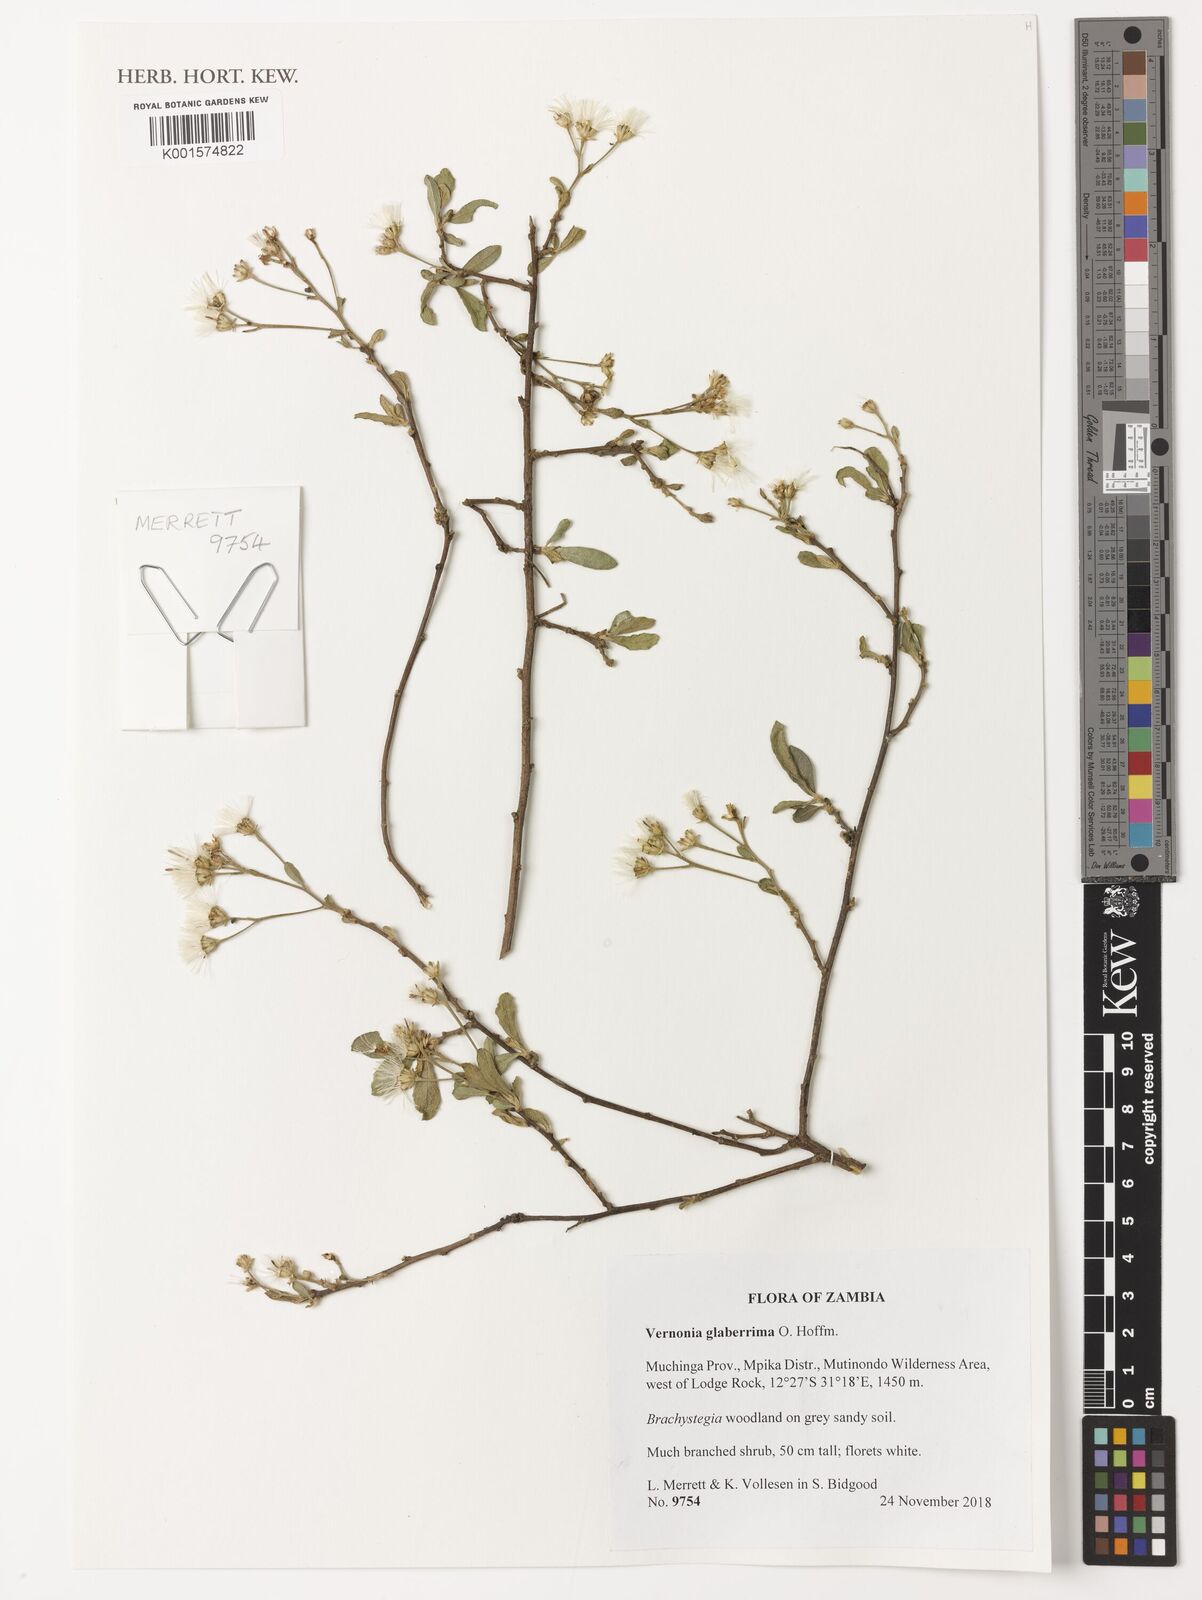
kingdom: Plantae
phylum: Tracheophyta
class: Magnoliopsida
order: Asterales
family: Asteraceae
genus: Gymnanthemum
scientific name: Gymnanthemum glaberrimum
